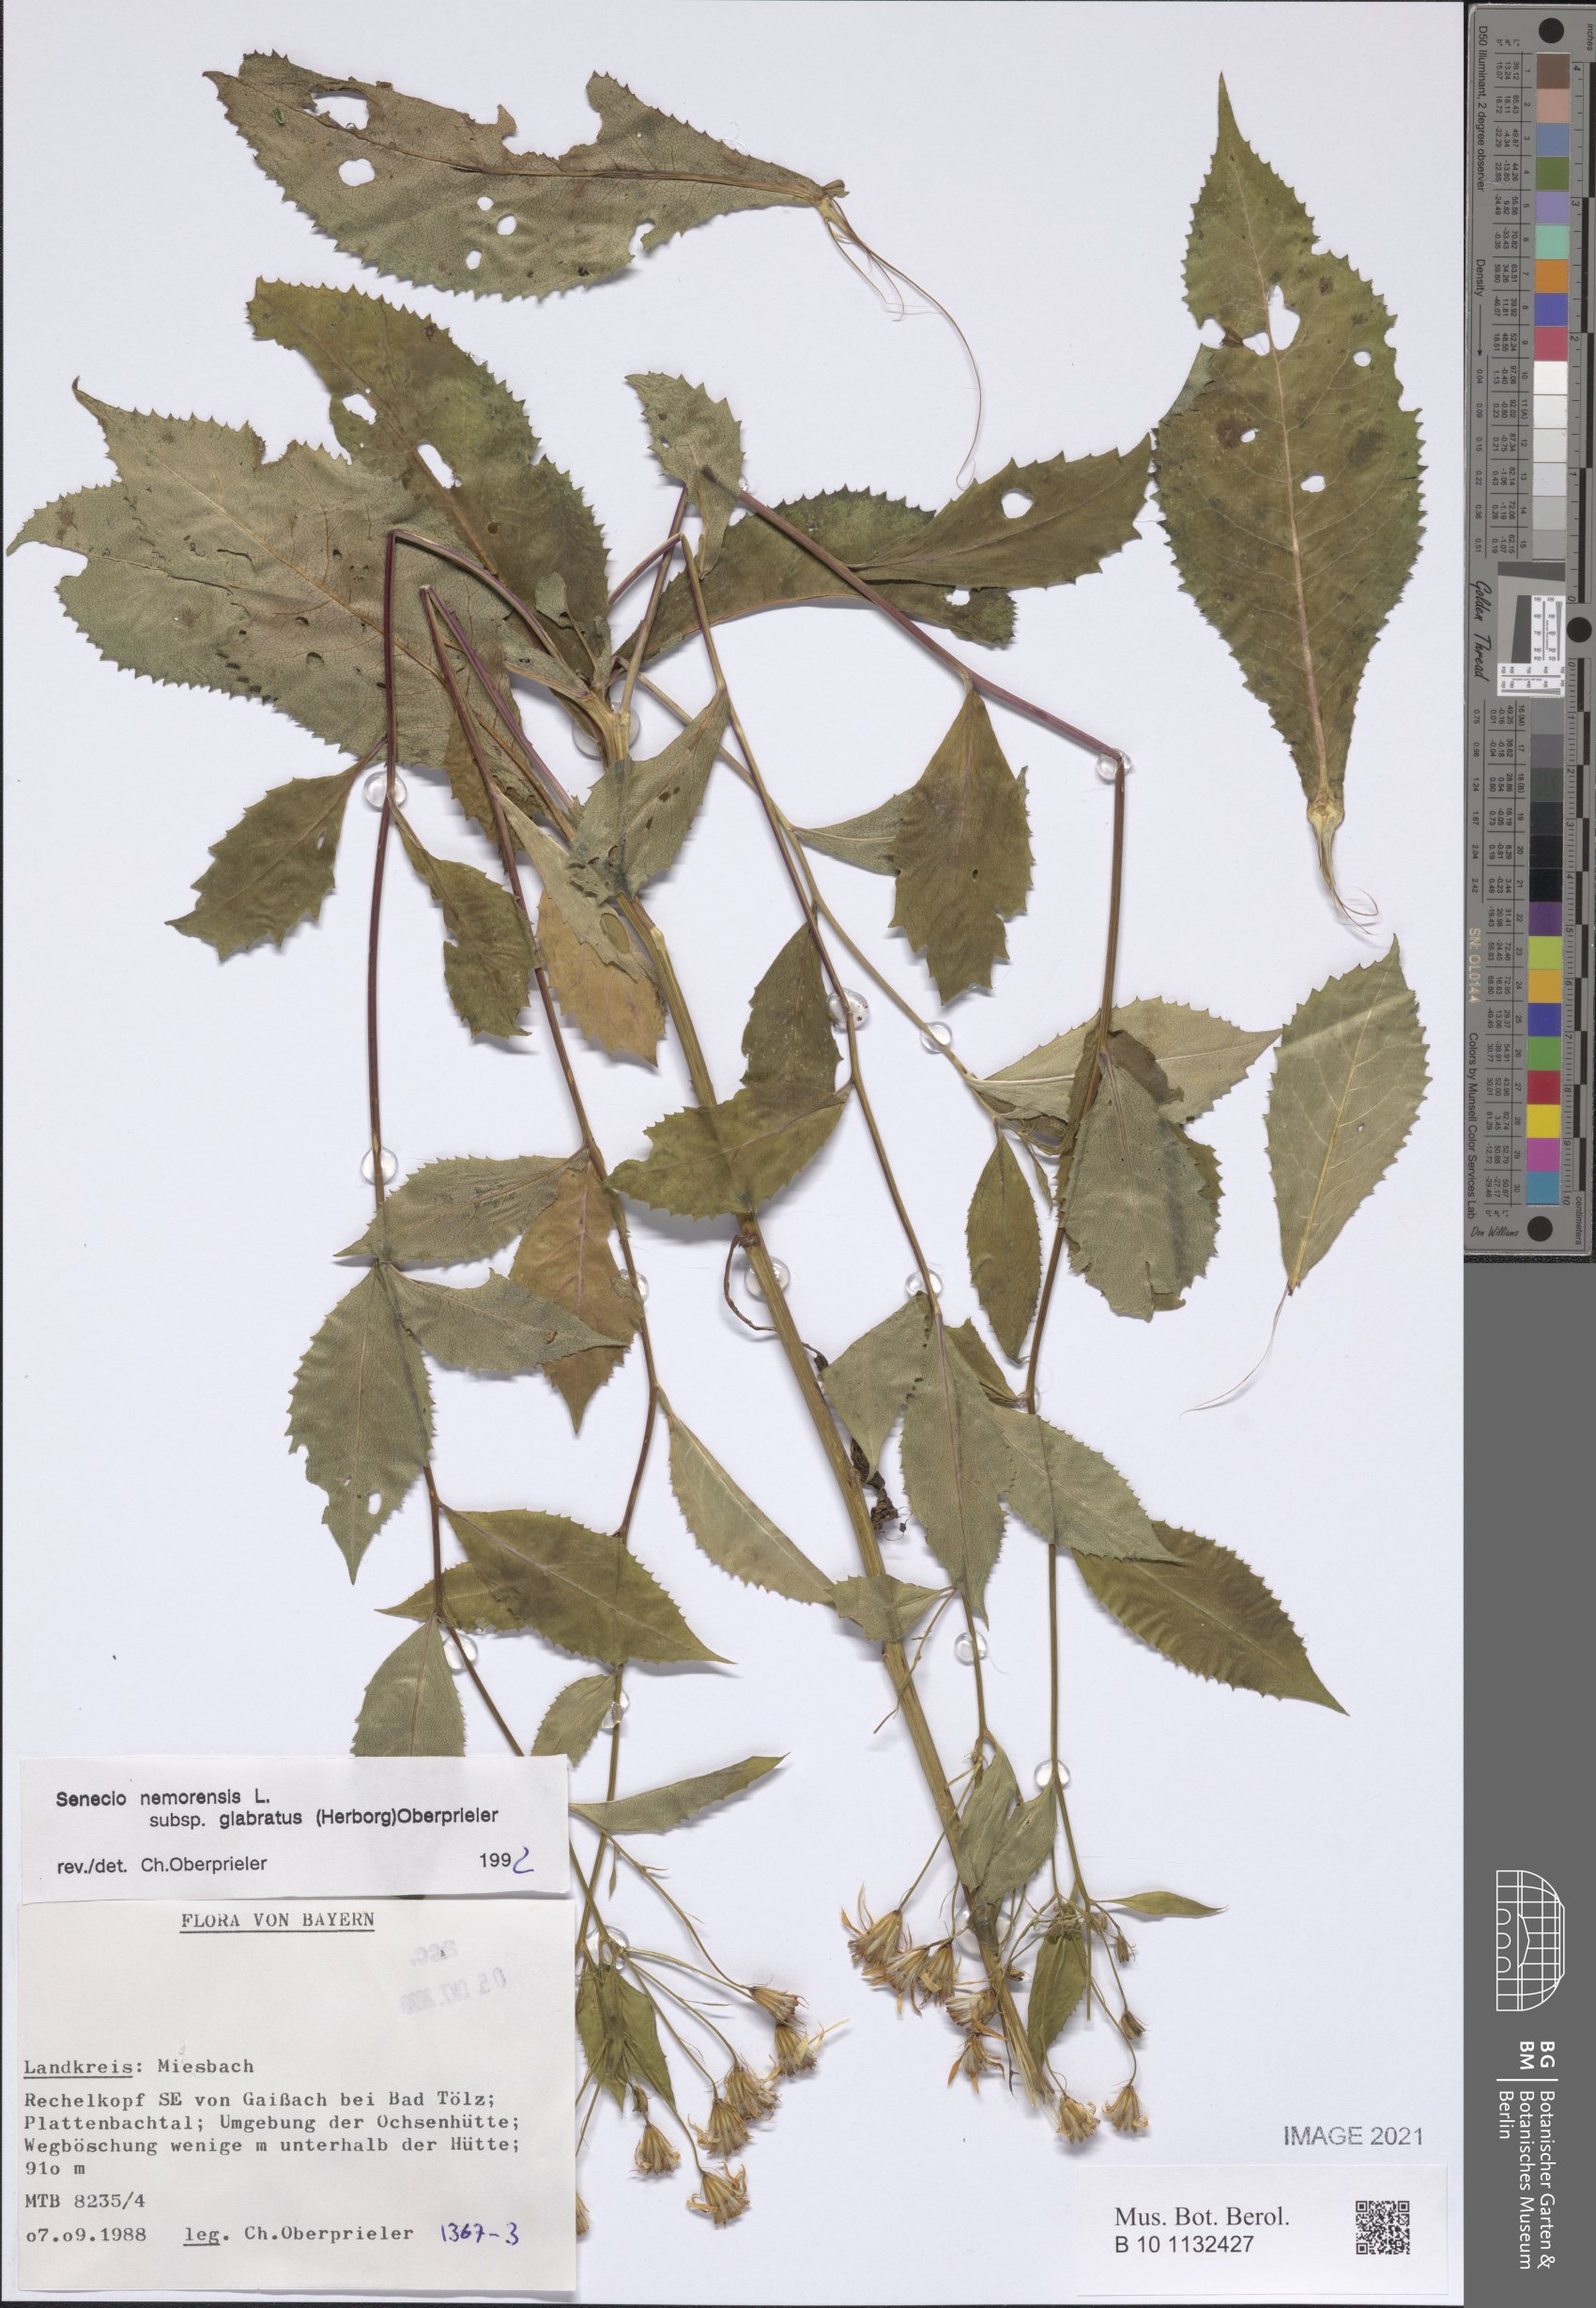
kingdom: Plantae
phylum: Tracheophyta
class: Magnoliopsida
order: Asterales
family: Asteraceae
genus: Senecio
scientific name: Senecio germanicus
